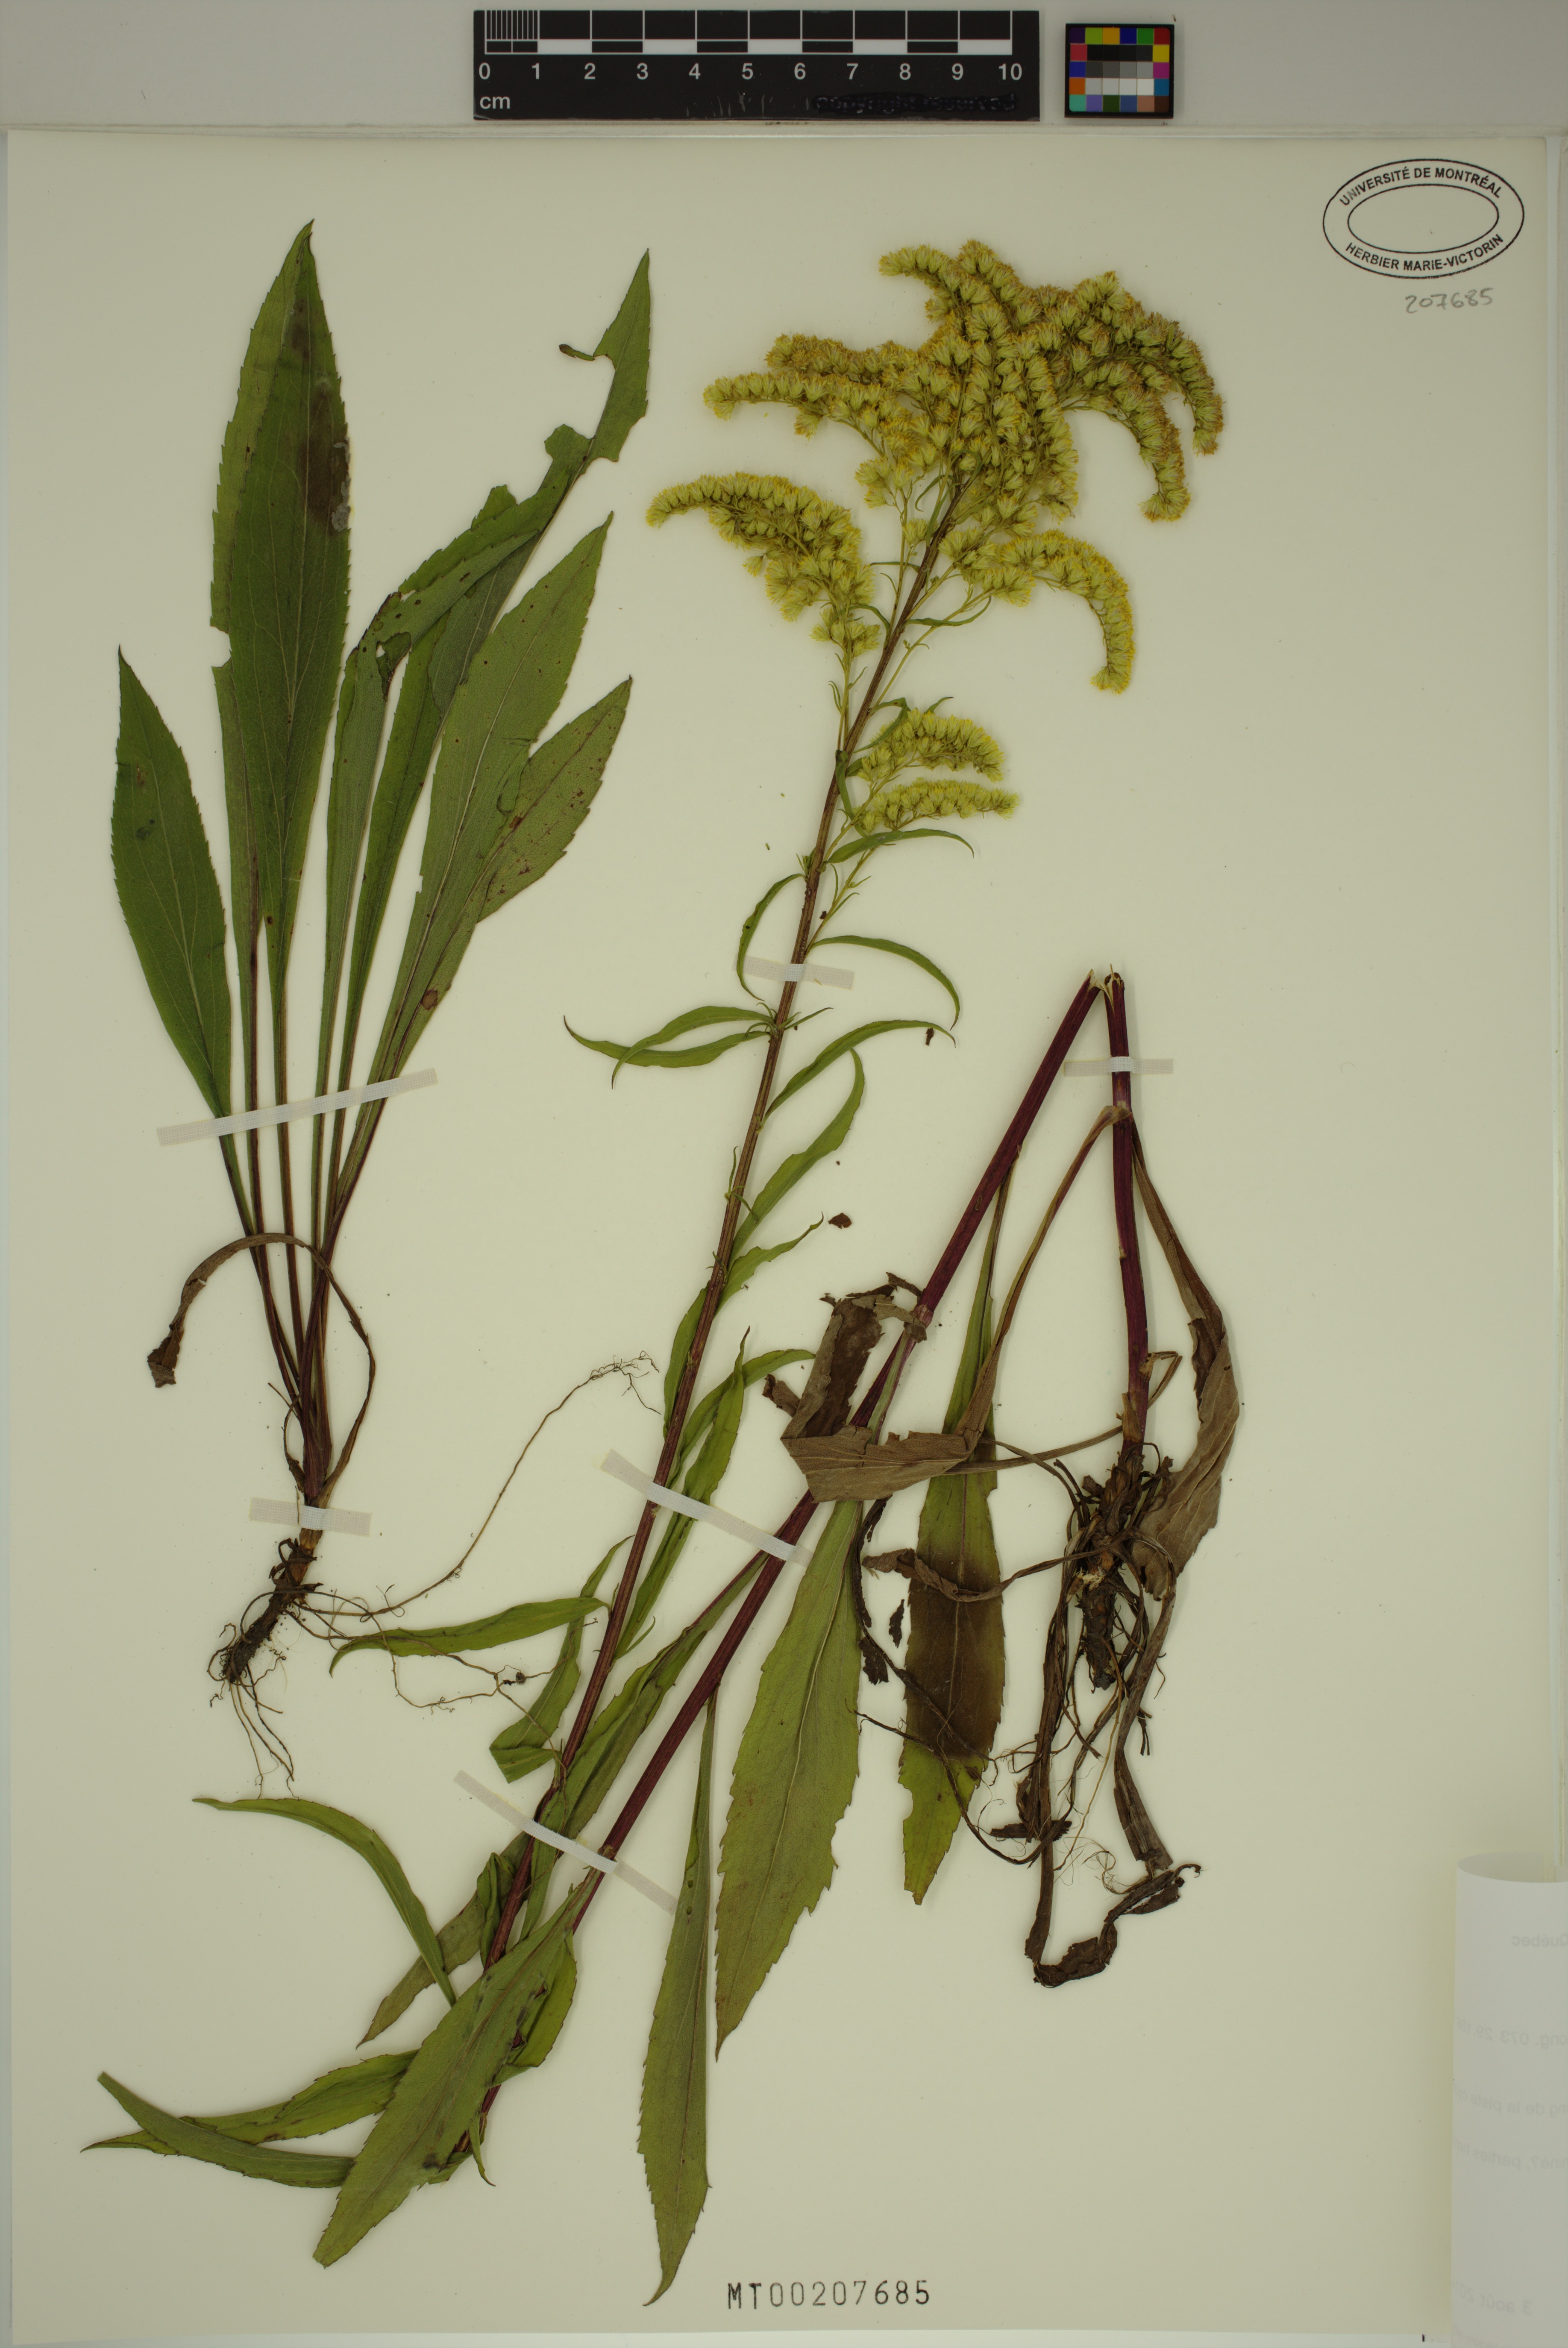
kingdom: Plantae
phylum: Tracheophyta
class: Magnoliopsida
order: Asterales
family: Asteraceae
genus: Solidago
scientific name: Solidago juncea
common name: Early goldenrod
